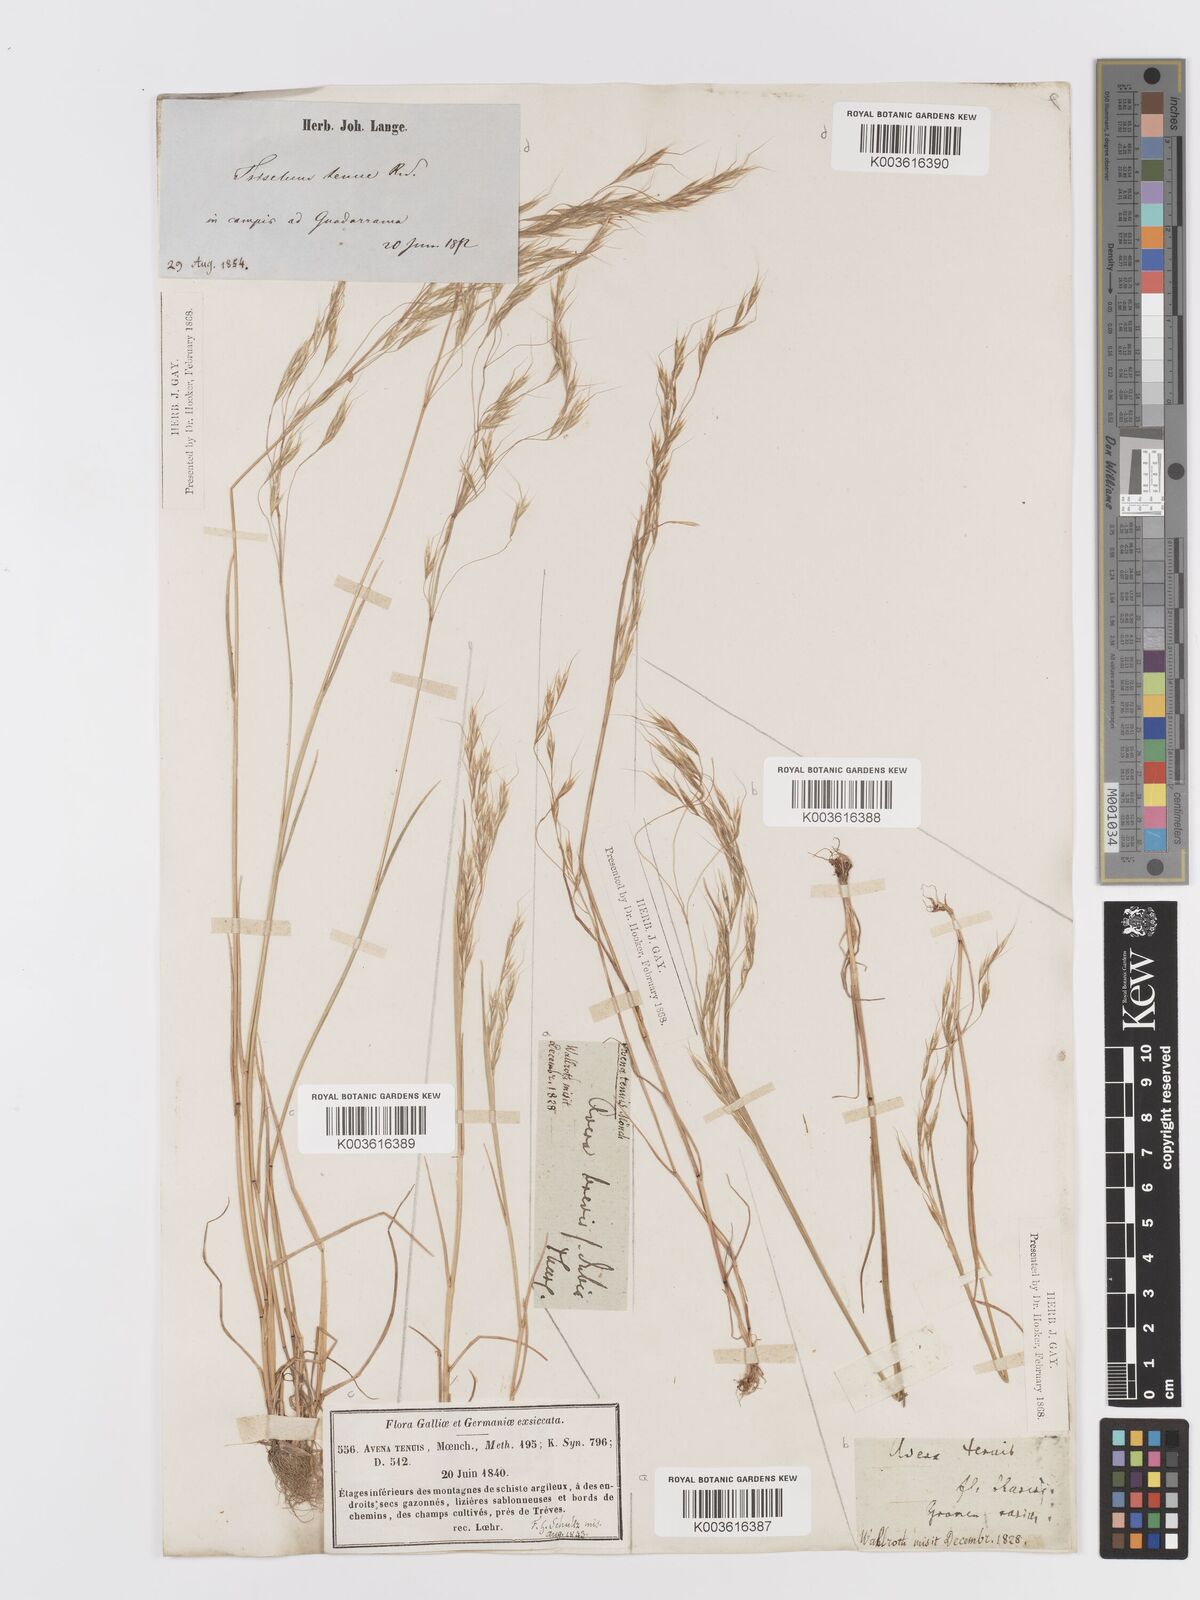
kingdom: Plantae
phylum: Tracheophyta
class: Liliopsida
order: Poales
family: Poaceae
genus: Ventenata
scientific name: Ventenata dubia
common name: North africa grass
